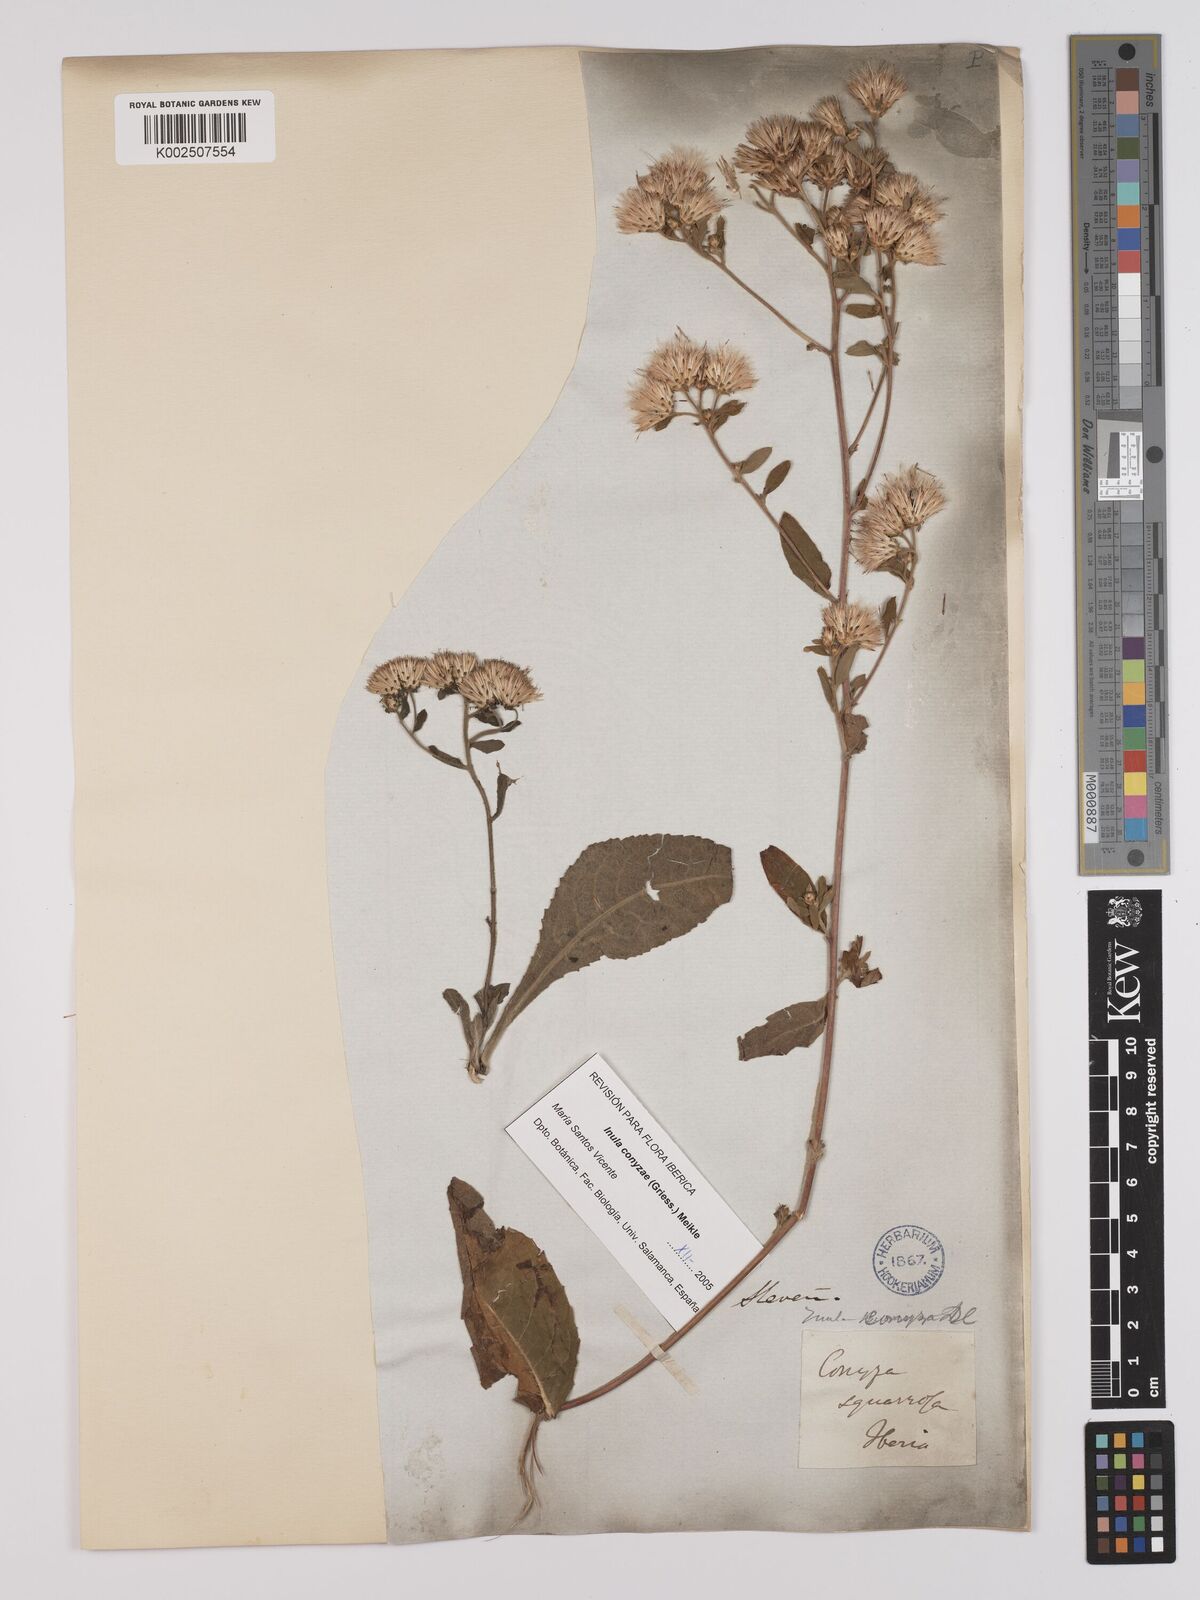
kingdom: Plantae
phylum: Tracheophyta
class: Magnoliopsida
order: Asterales
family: Asteraceae
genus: Pentanema
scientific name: Pentanema squarrosum
